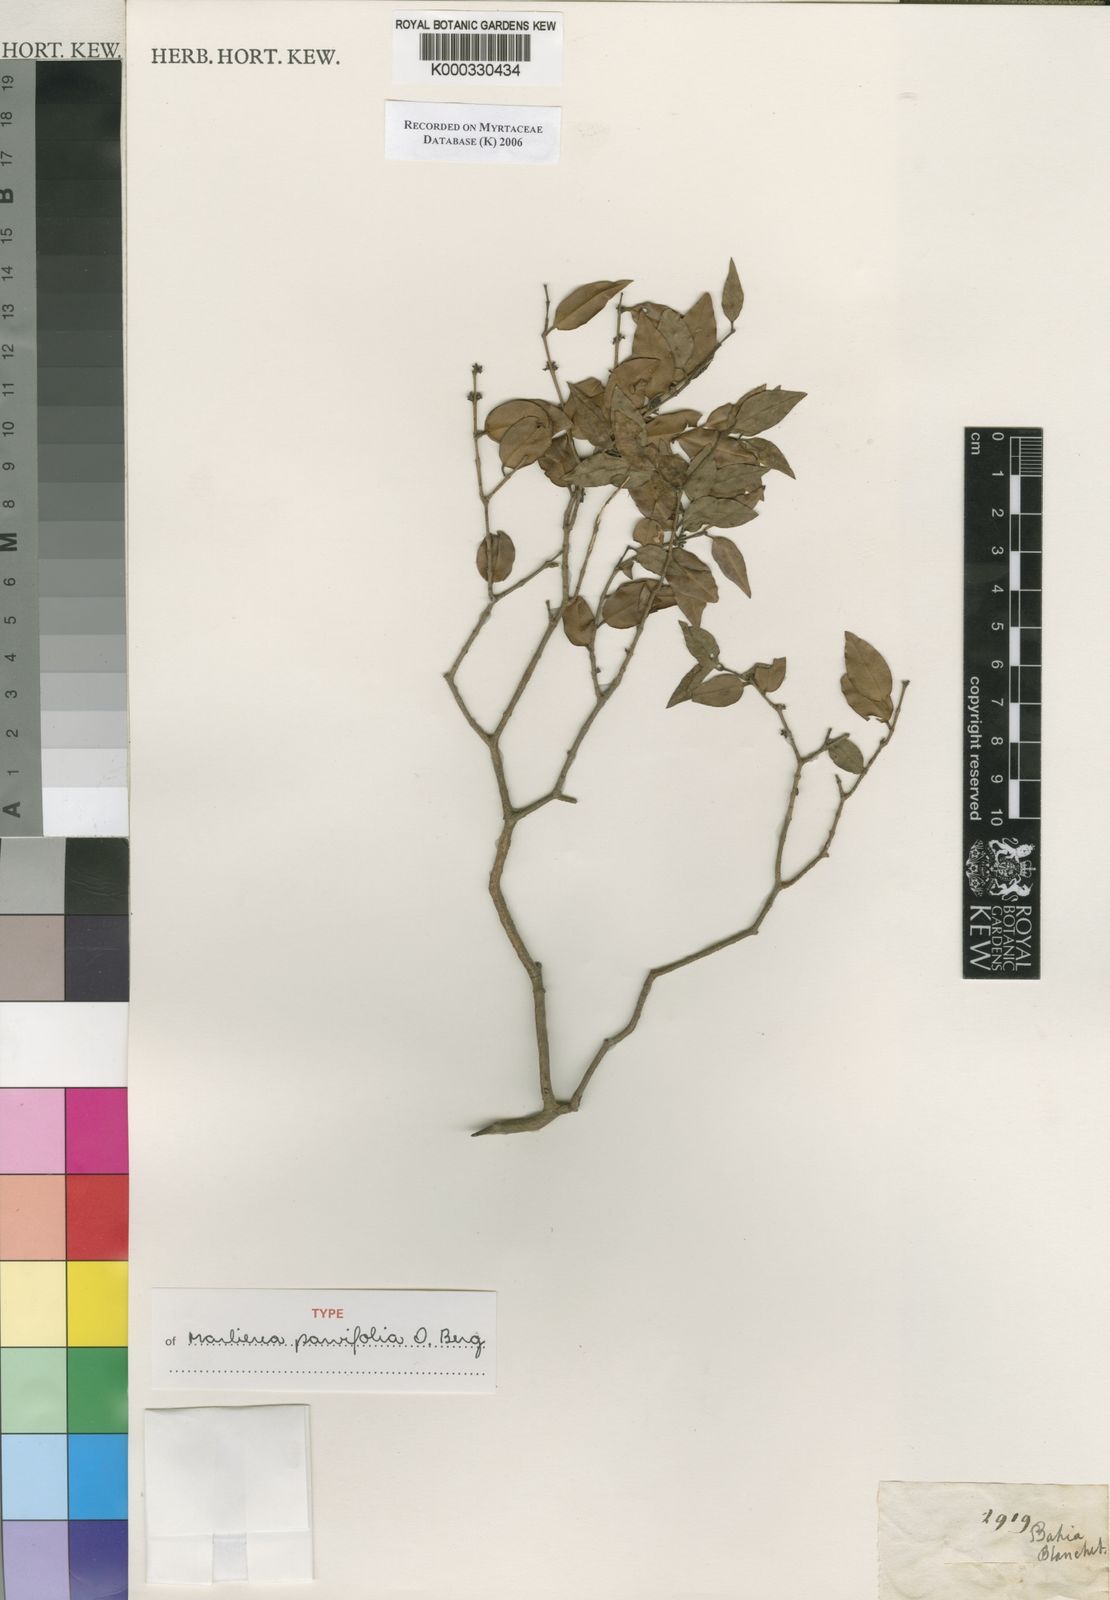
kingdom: Plantae
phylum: Tracheophyta
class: Magnoliopsida
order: Myrtales
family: Myrtaceae
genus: Plinia
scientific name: Plinia parvifolia
